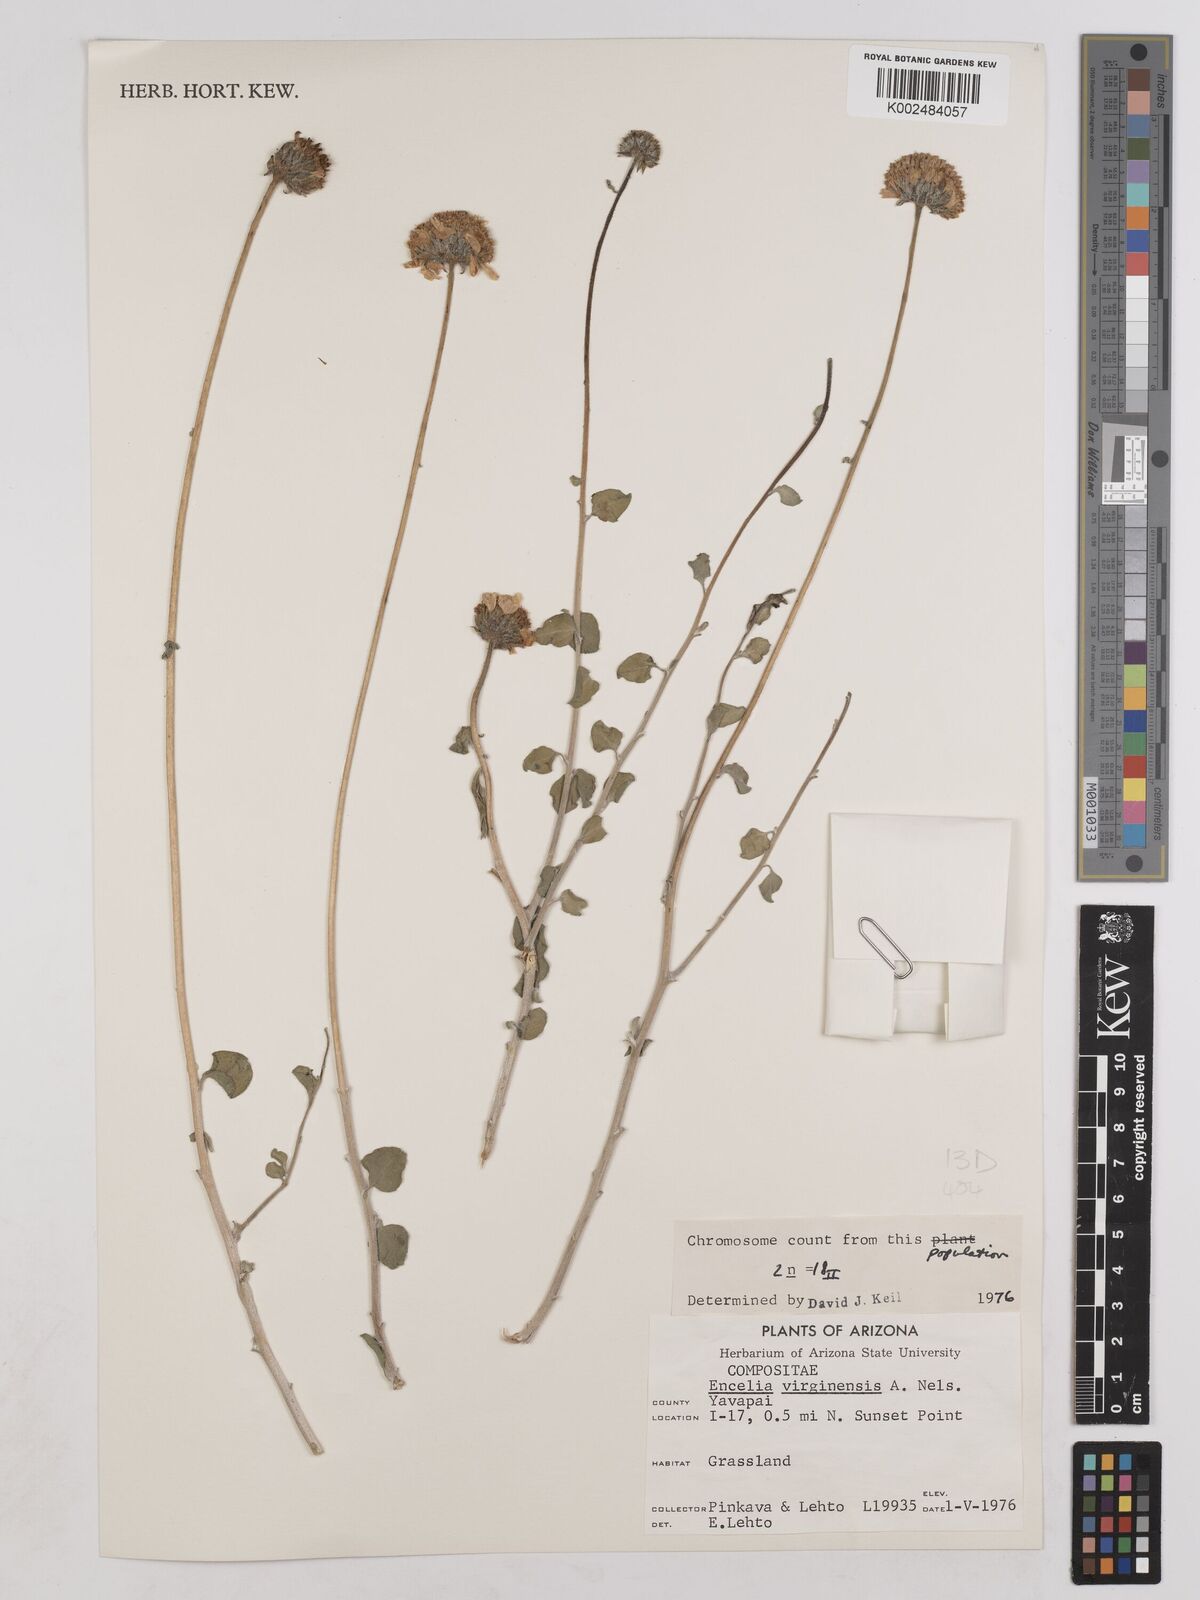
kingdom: Plantae
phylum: Tracheophyta
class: Magnoliopsida
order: Asterales
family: Asteraceae
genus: Encelia
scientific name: Encelia virginensis
